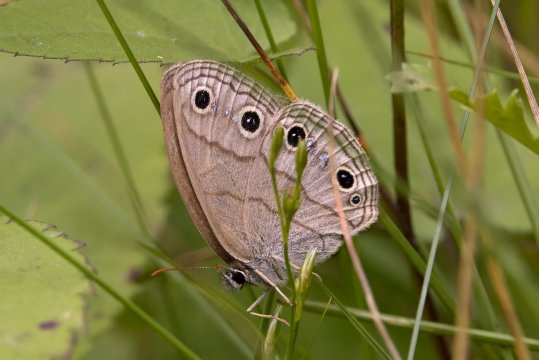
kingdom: Animalia
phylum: Arthropoda
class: Insecta
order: Lepidoptera
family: Nymphalidae
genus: Euptychia
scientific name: Euptychia cymela
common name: Little Wood Satyr
